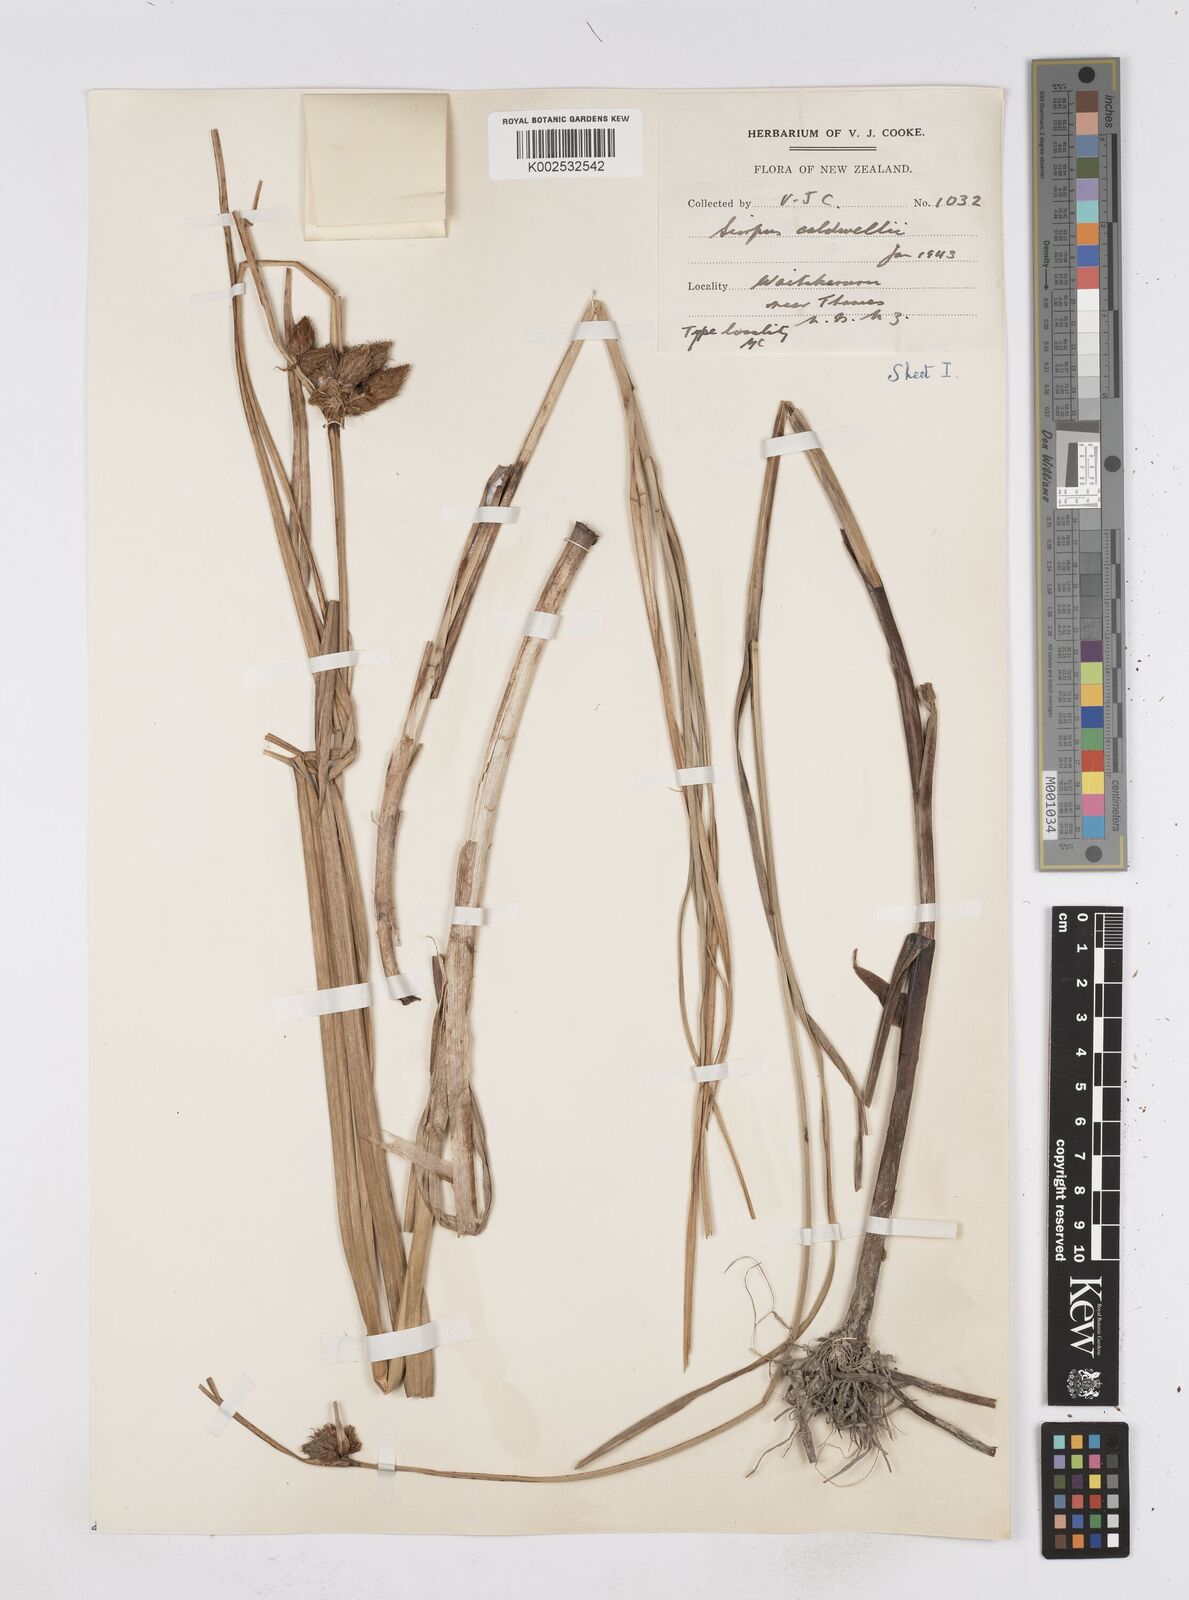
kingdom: Plantae
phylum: Tracheophyta
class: Liliopsida
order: Poales
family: Cyperaceae
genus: Bolboschoenus
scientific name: Bolboschoenus caldwellii
